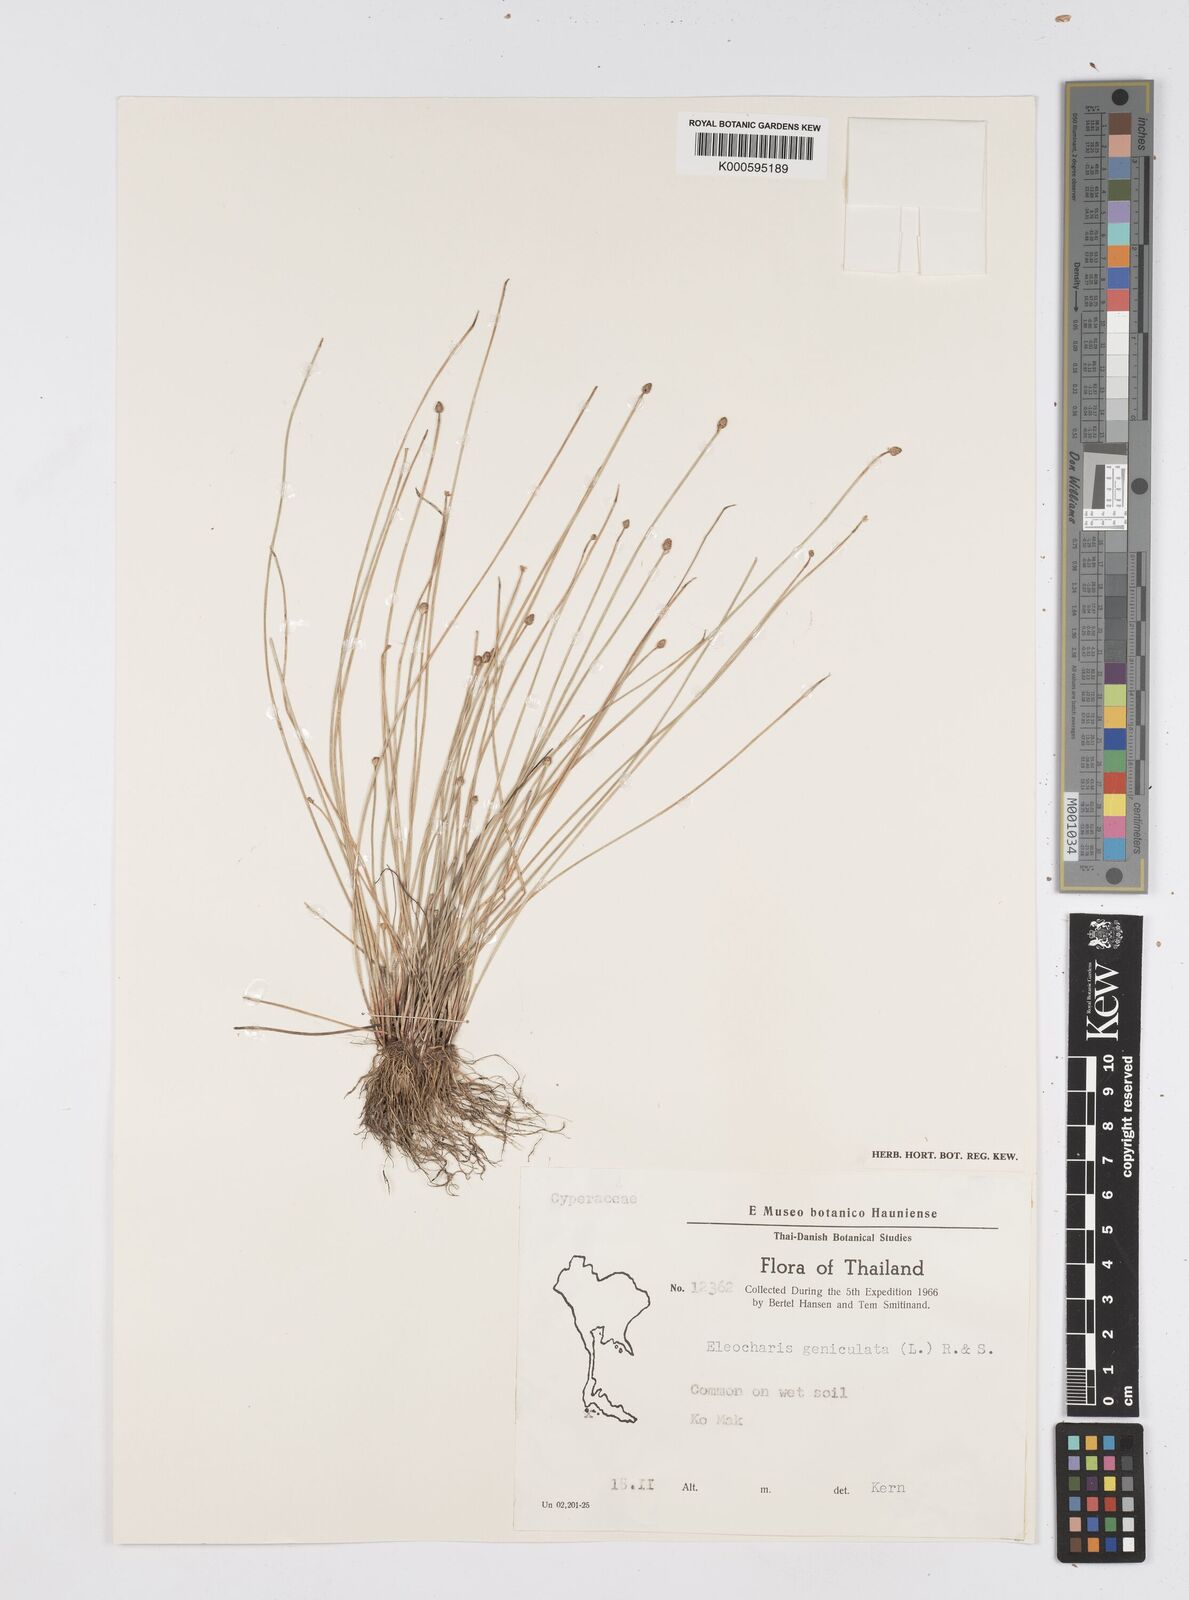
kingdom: Plantae
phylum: Tracheophyta
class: Liliopsida
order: Poales
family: Cyperaceae
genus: Eleocharis
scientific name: Eleocharis geniculata
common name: Canada spikesedge
